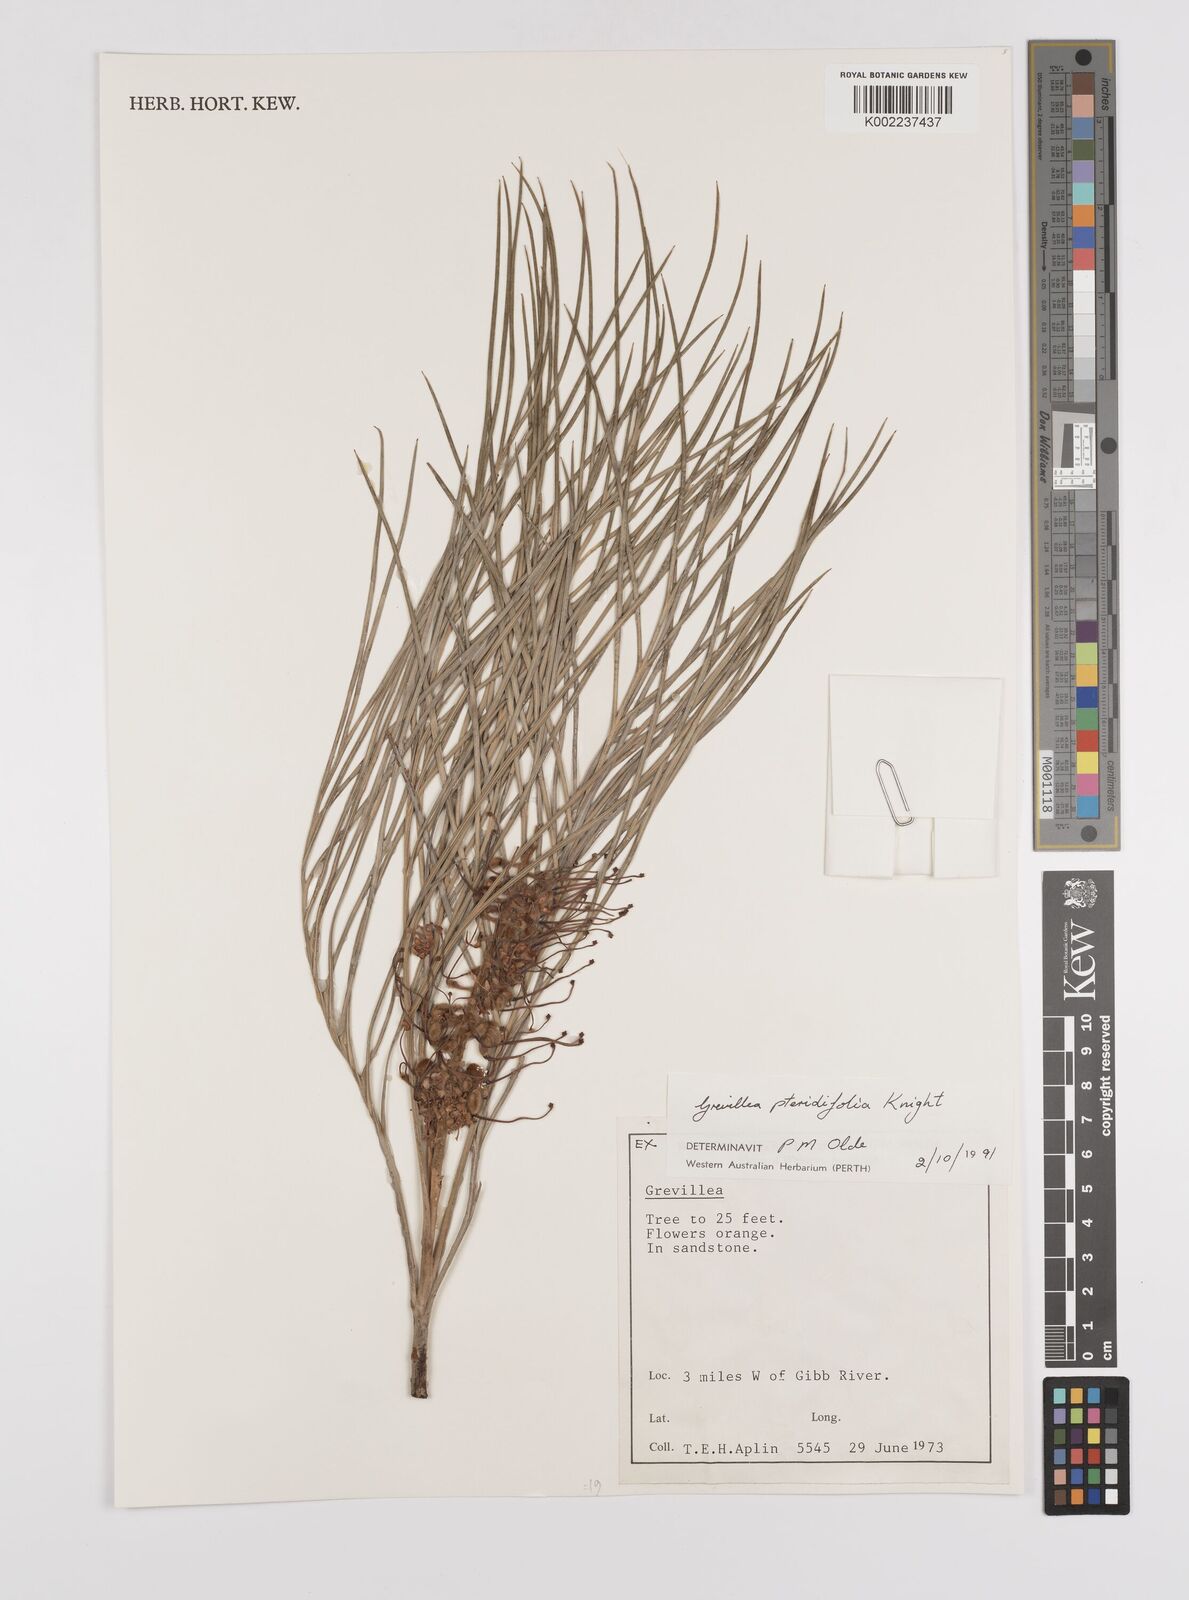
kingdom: Plantae
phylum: Tracheophyta
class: Magnoliopsida
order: Proteales
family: Proteaceae
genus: Grevillea
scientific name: Grevillea pteridifolia
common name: Golden grevillea
